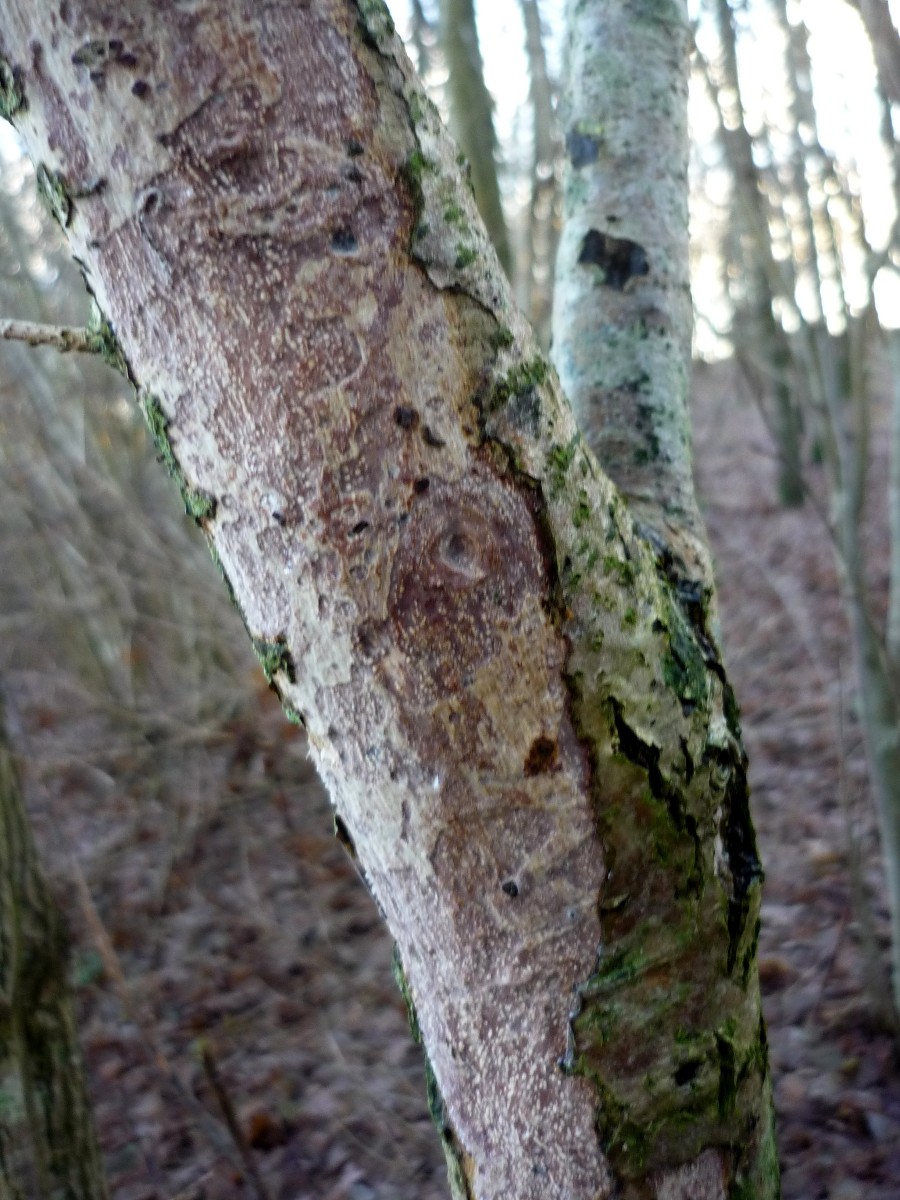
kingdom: Fungi
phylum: Basidiomycota
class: Agaricomycetes
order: Corticiales
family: Vuilleminiaceae
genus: Vuilleminia
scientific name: Vuilleminia comedens
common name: almindelig barksprænger
